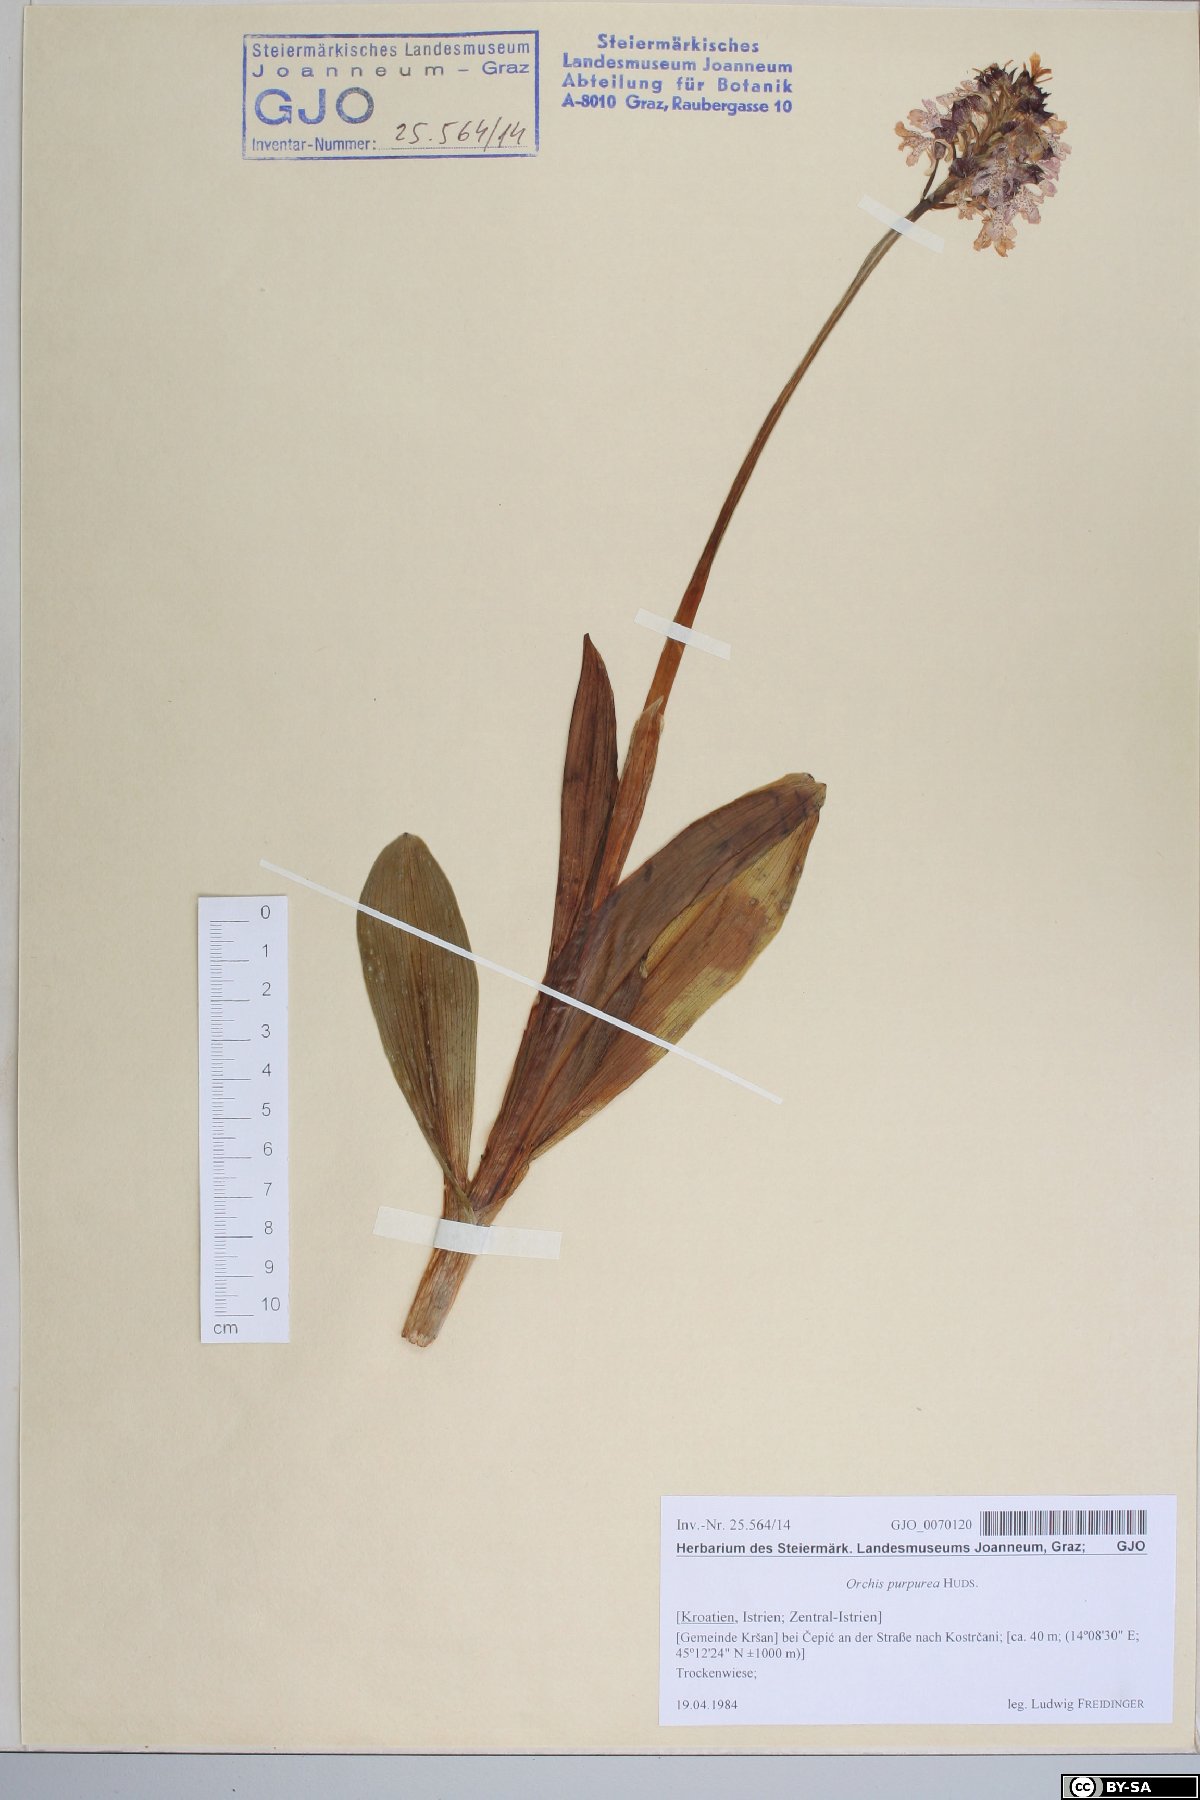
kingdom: Plantae
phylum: Tracheophyta
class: Liliopsida
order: Asparagales
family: Orchidaceae
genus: Orchis
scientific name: Orchis purpurea
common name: Lady orchid
